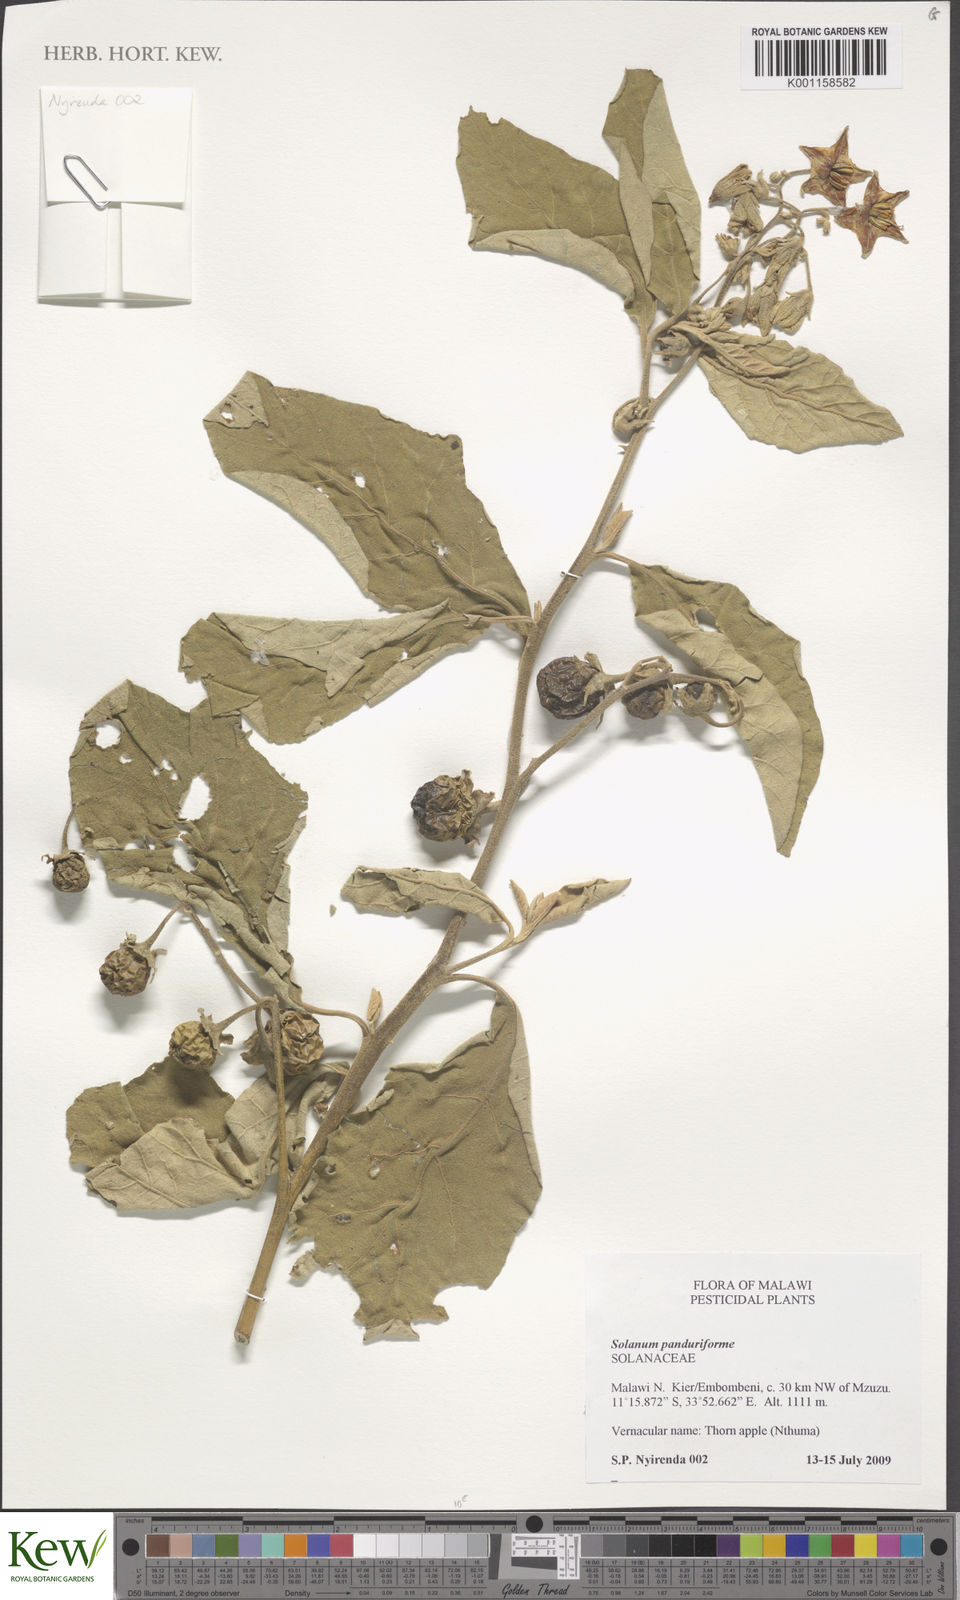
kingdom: Plantae
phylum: Tracheophyta
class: Magnoliopsida
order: Solanales
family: Solanaceae
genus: Solanum
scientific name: Solanum campylacanthum
